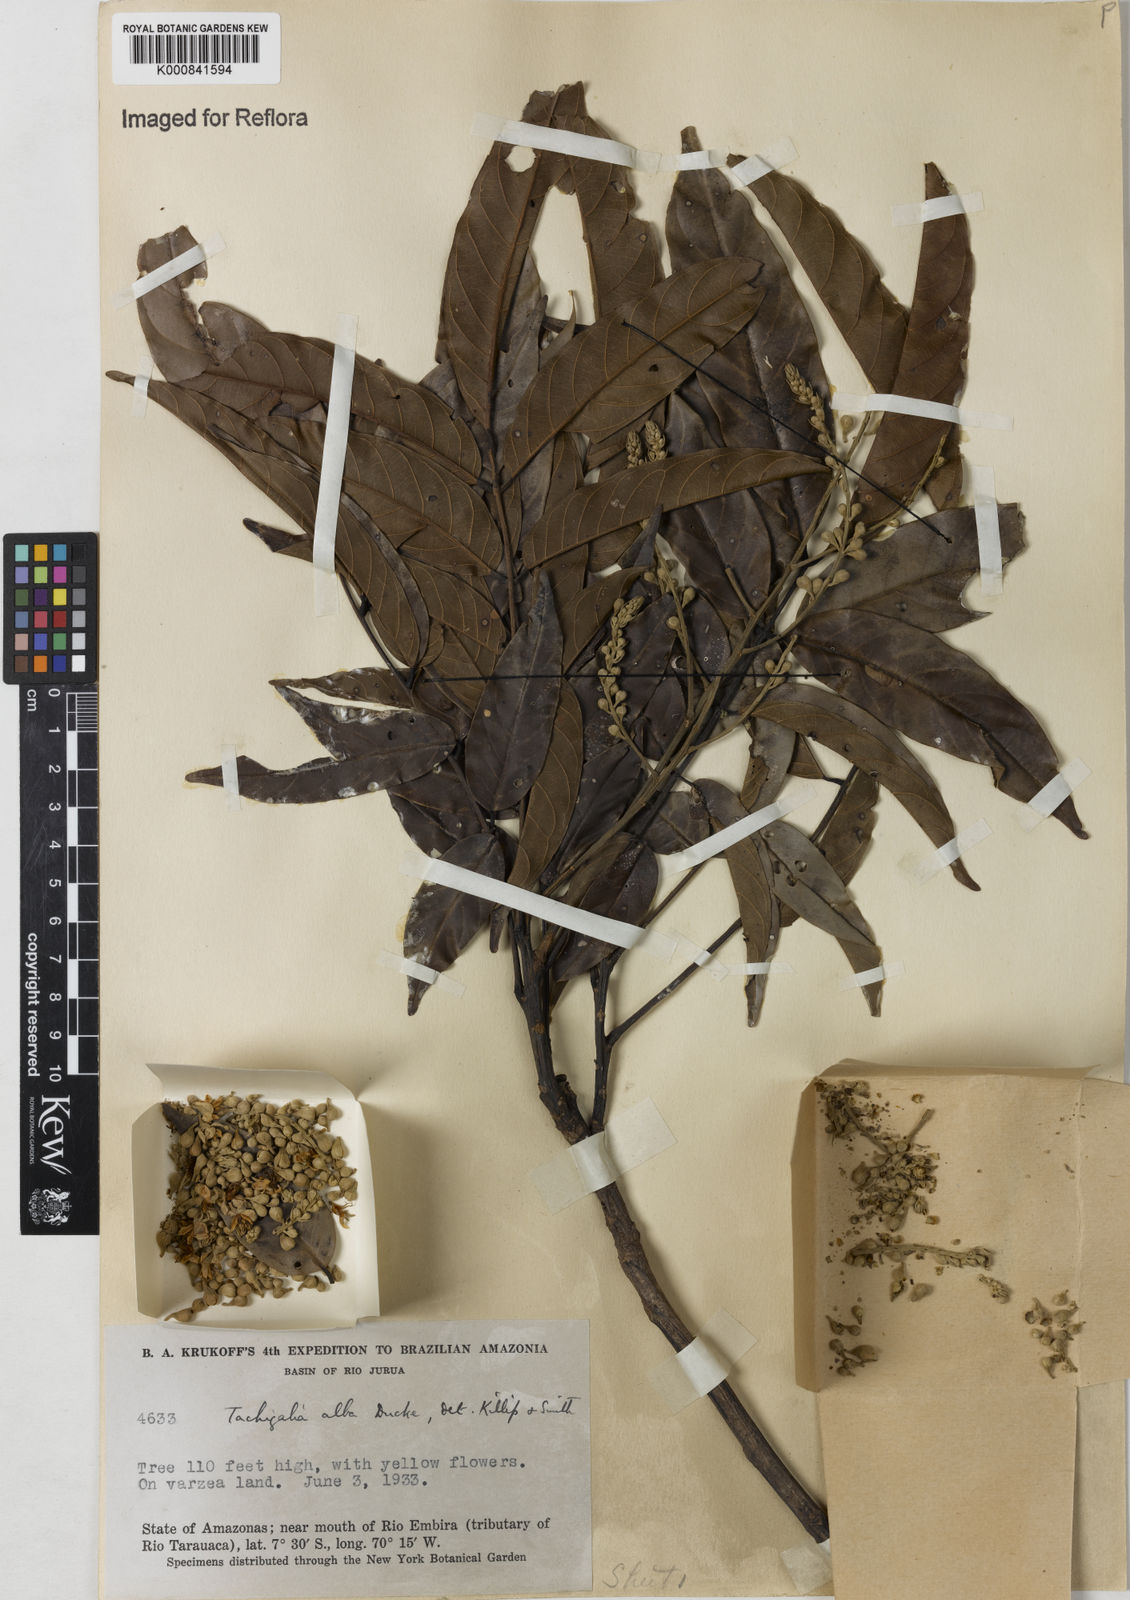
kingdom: Plantae
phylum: Tracheophyta
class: Magnoliopsida
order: Fabales
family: Fabaceae
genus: Tachigali
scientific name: Tachigali alba
